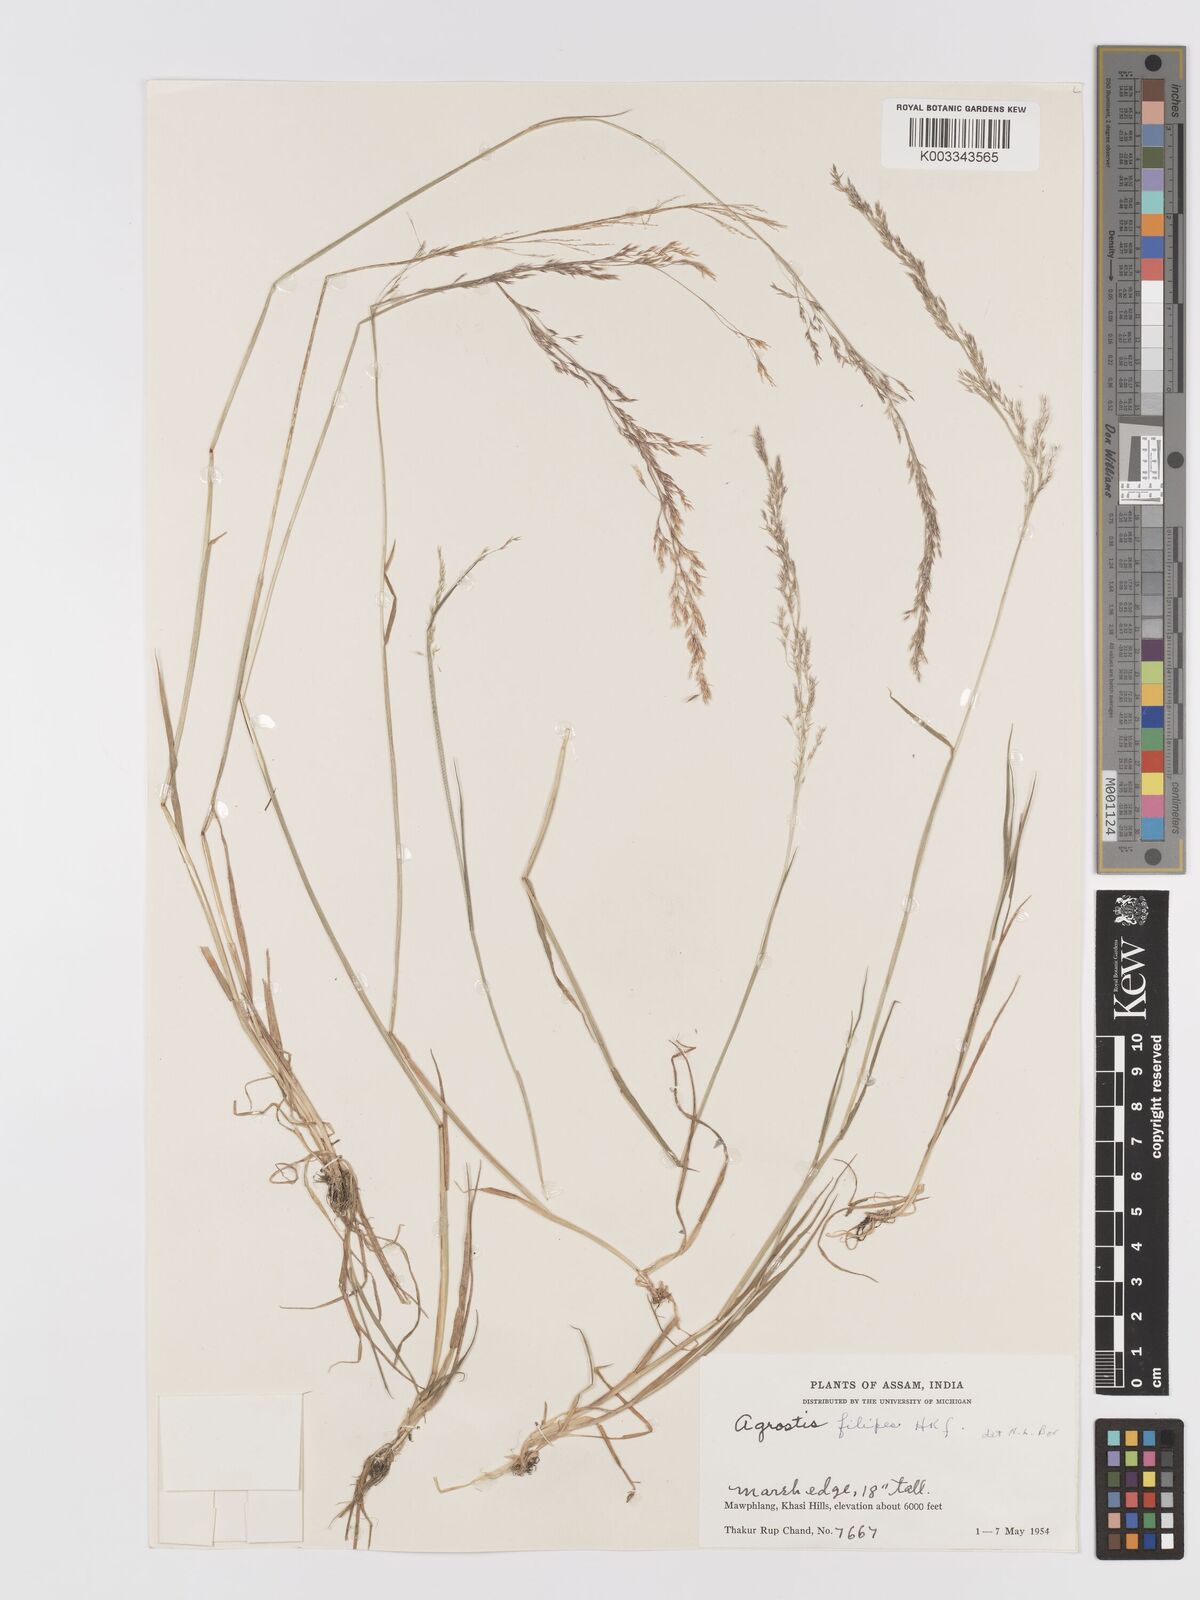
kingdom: Plantae
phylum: Tracheophyta
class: Liliopsida
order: Poales
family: Poaceae
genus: Agrostis
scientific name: Agrostis filipes
